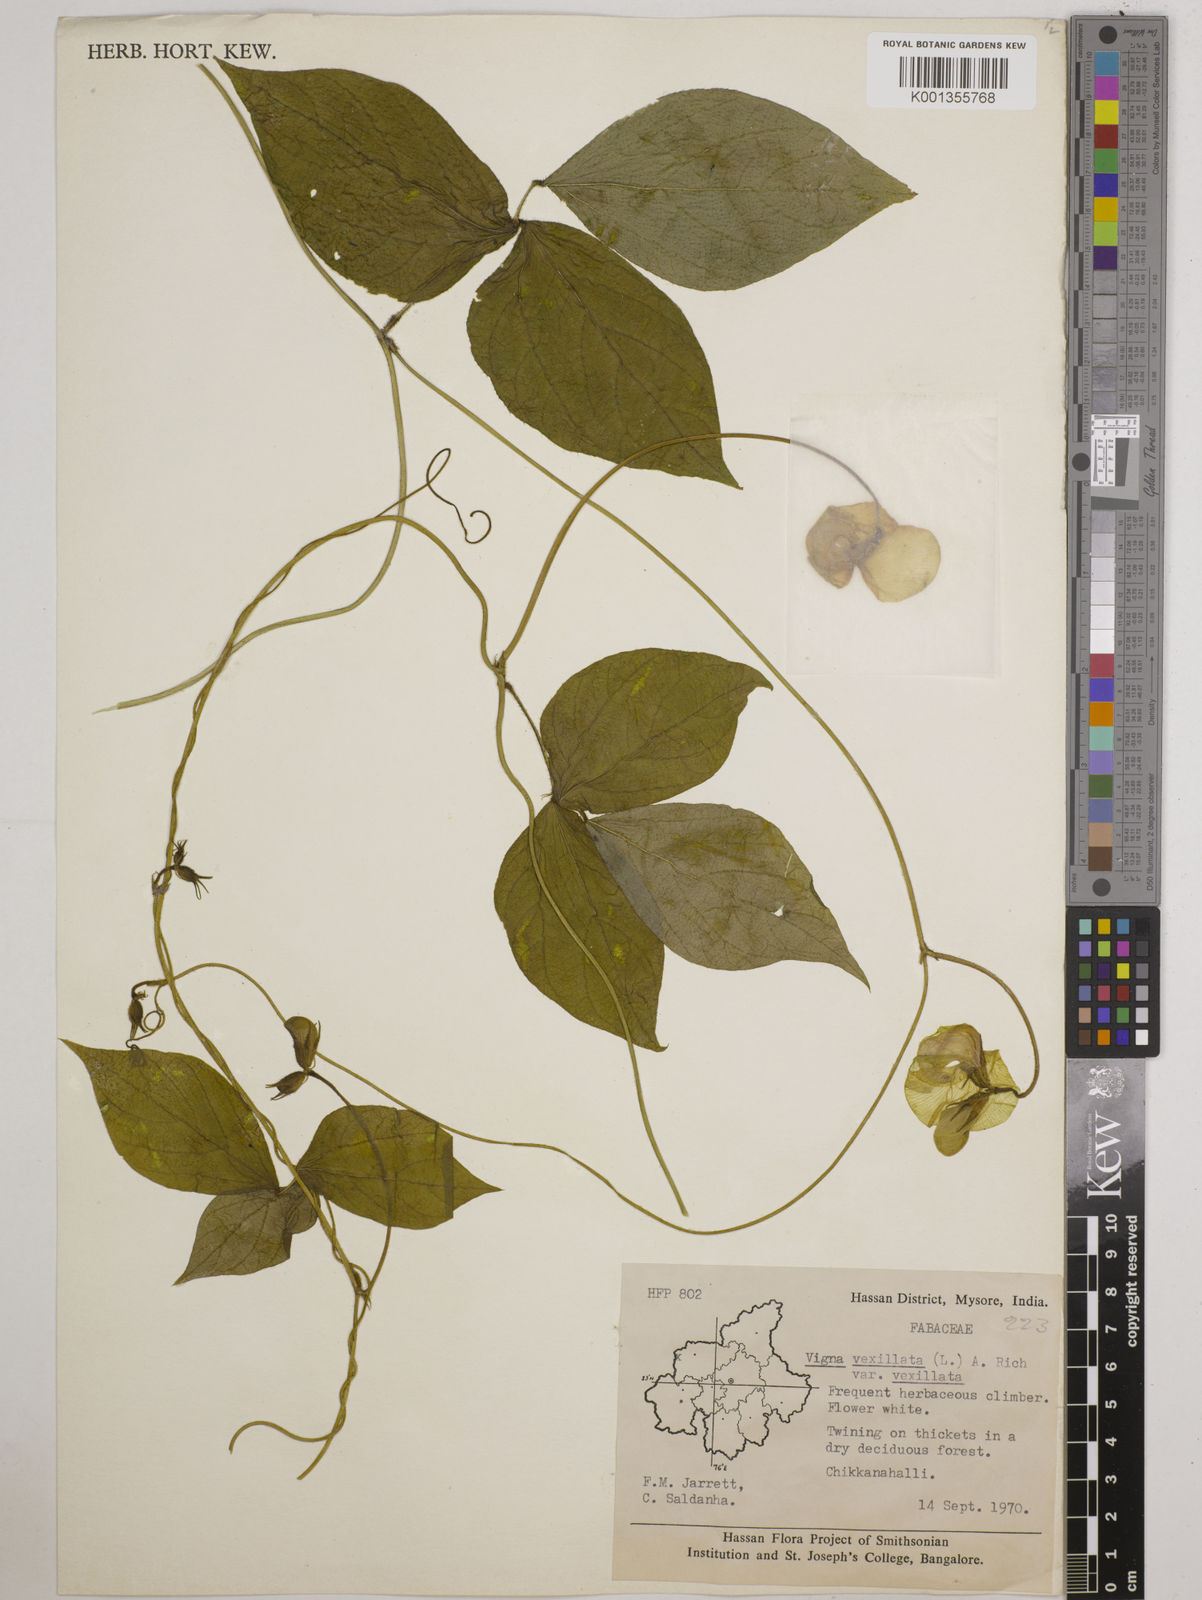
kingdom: Plantae
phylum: Tracheophyta
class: Magnoliopsida
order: Fabales
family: Fabaceae
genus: Vigna
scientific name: Vigna vexillata
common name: Zombi pea
